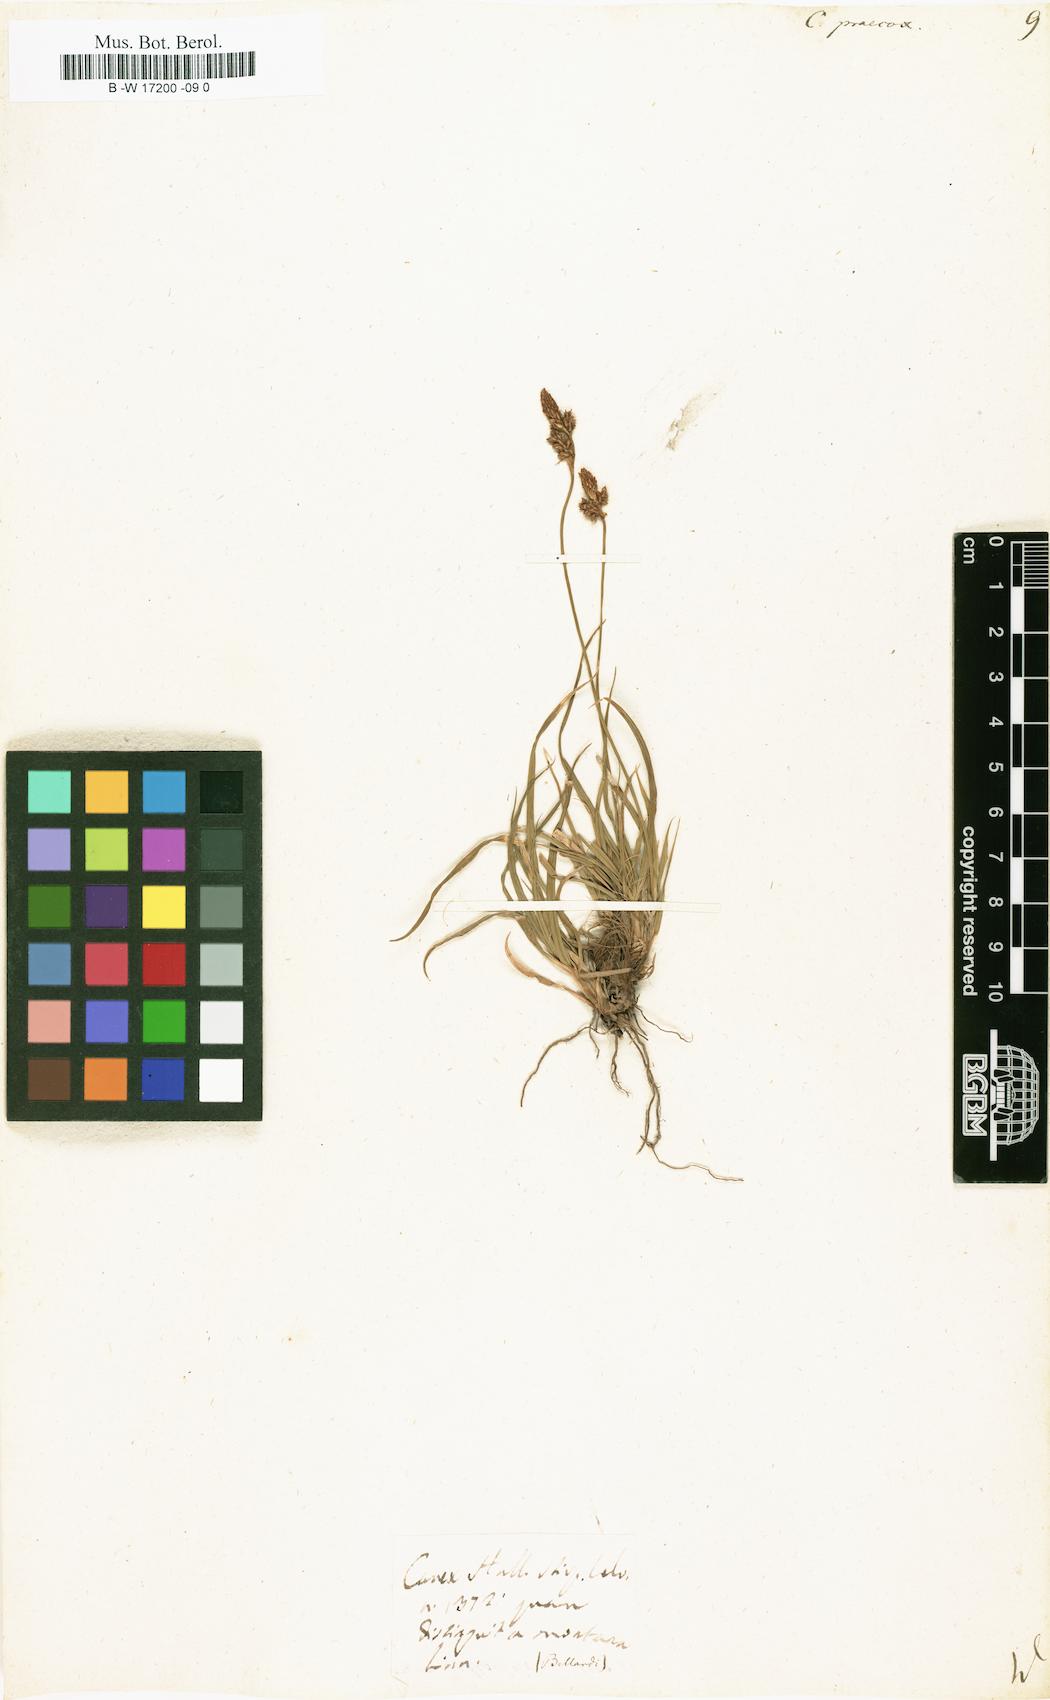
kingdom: Plantae
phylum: Tracheophyta
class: Liliopsida
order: Poales
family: Cyperaceae
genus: Carex
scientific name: Carex praecox
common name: Early sedge
